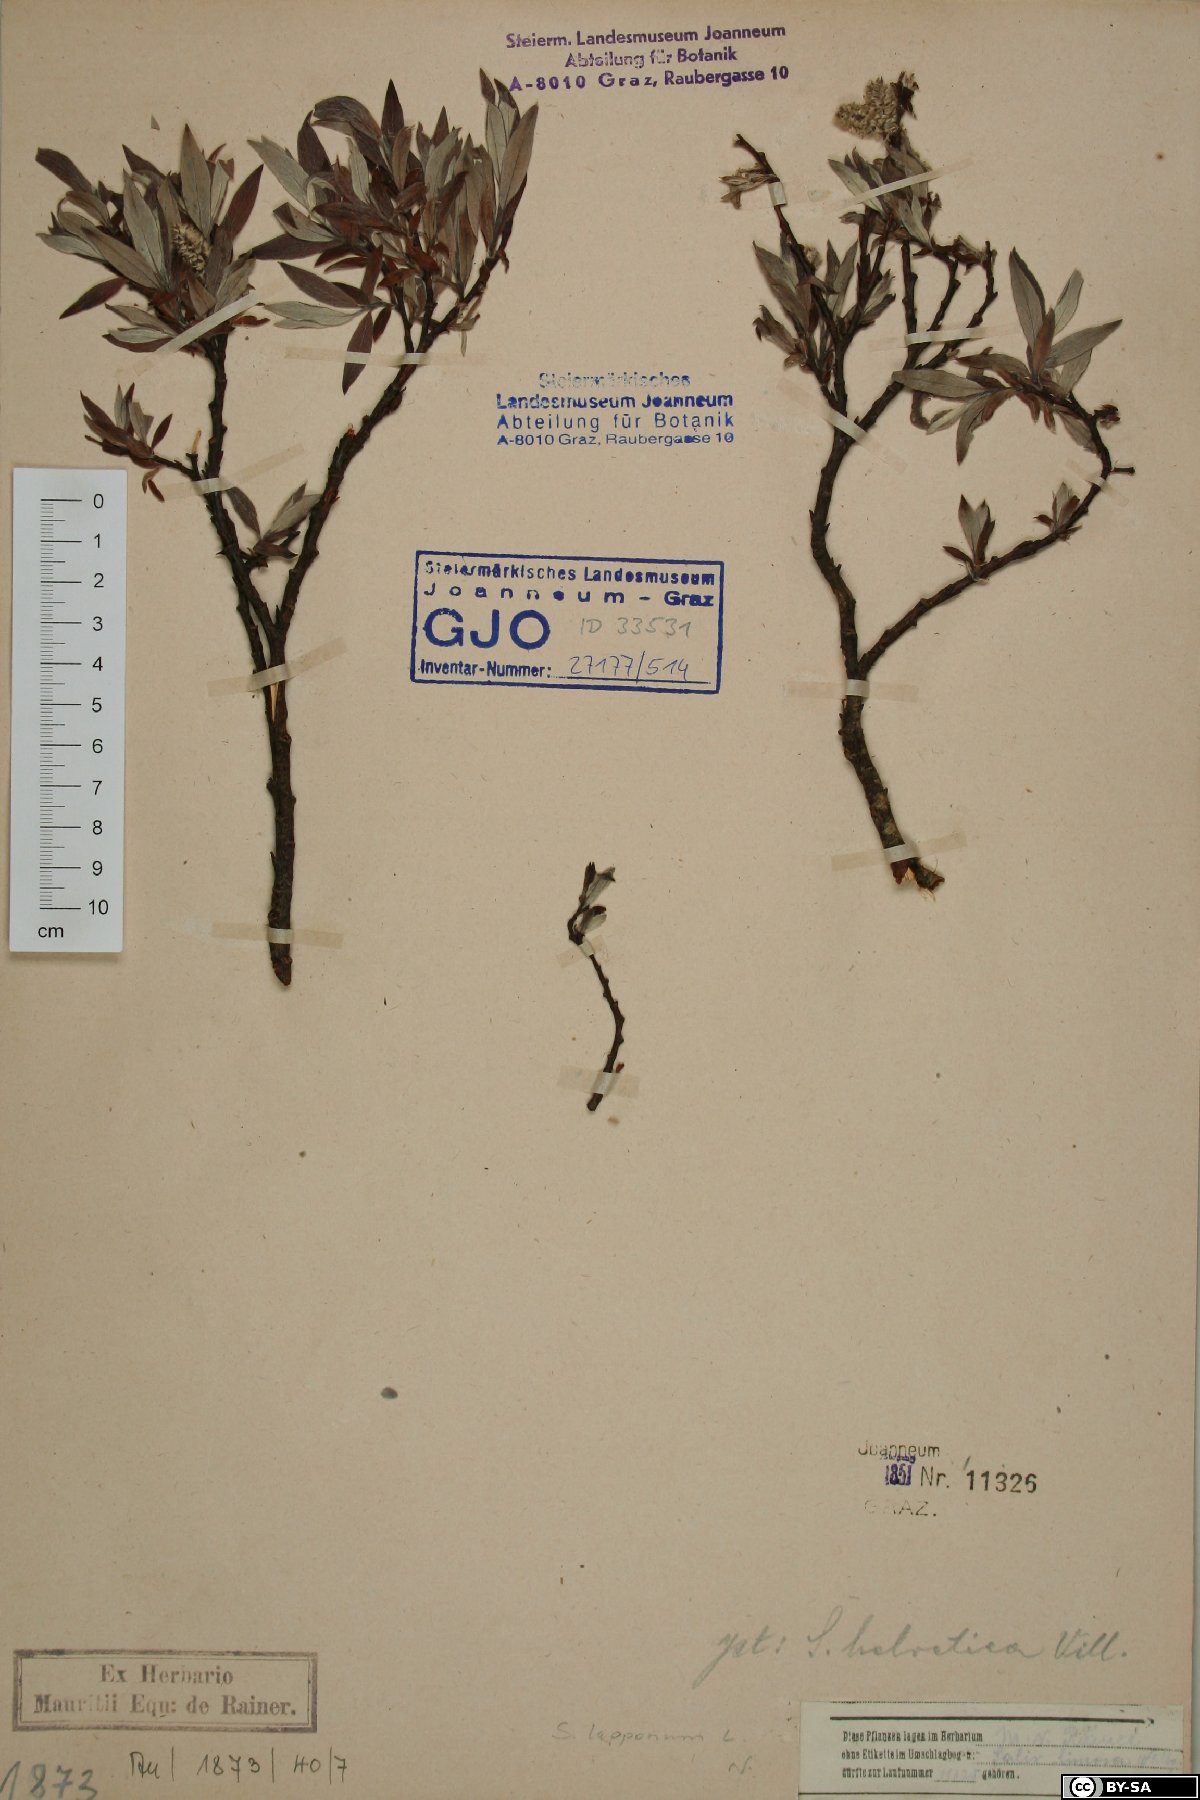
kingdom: Plantae
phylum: Tracheophyta
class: Magnoliopsida
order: Malpighiales
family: Salicaceae
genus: Salix
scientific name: Salix lapponum
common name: Downy willow
